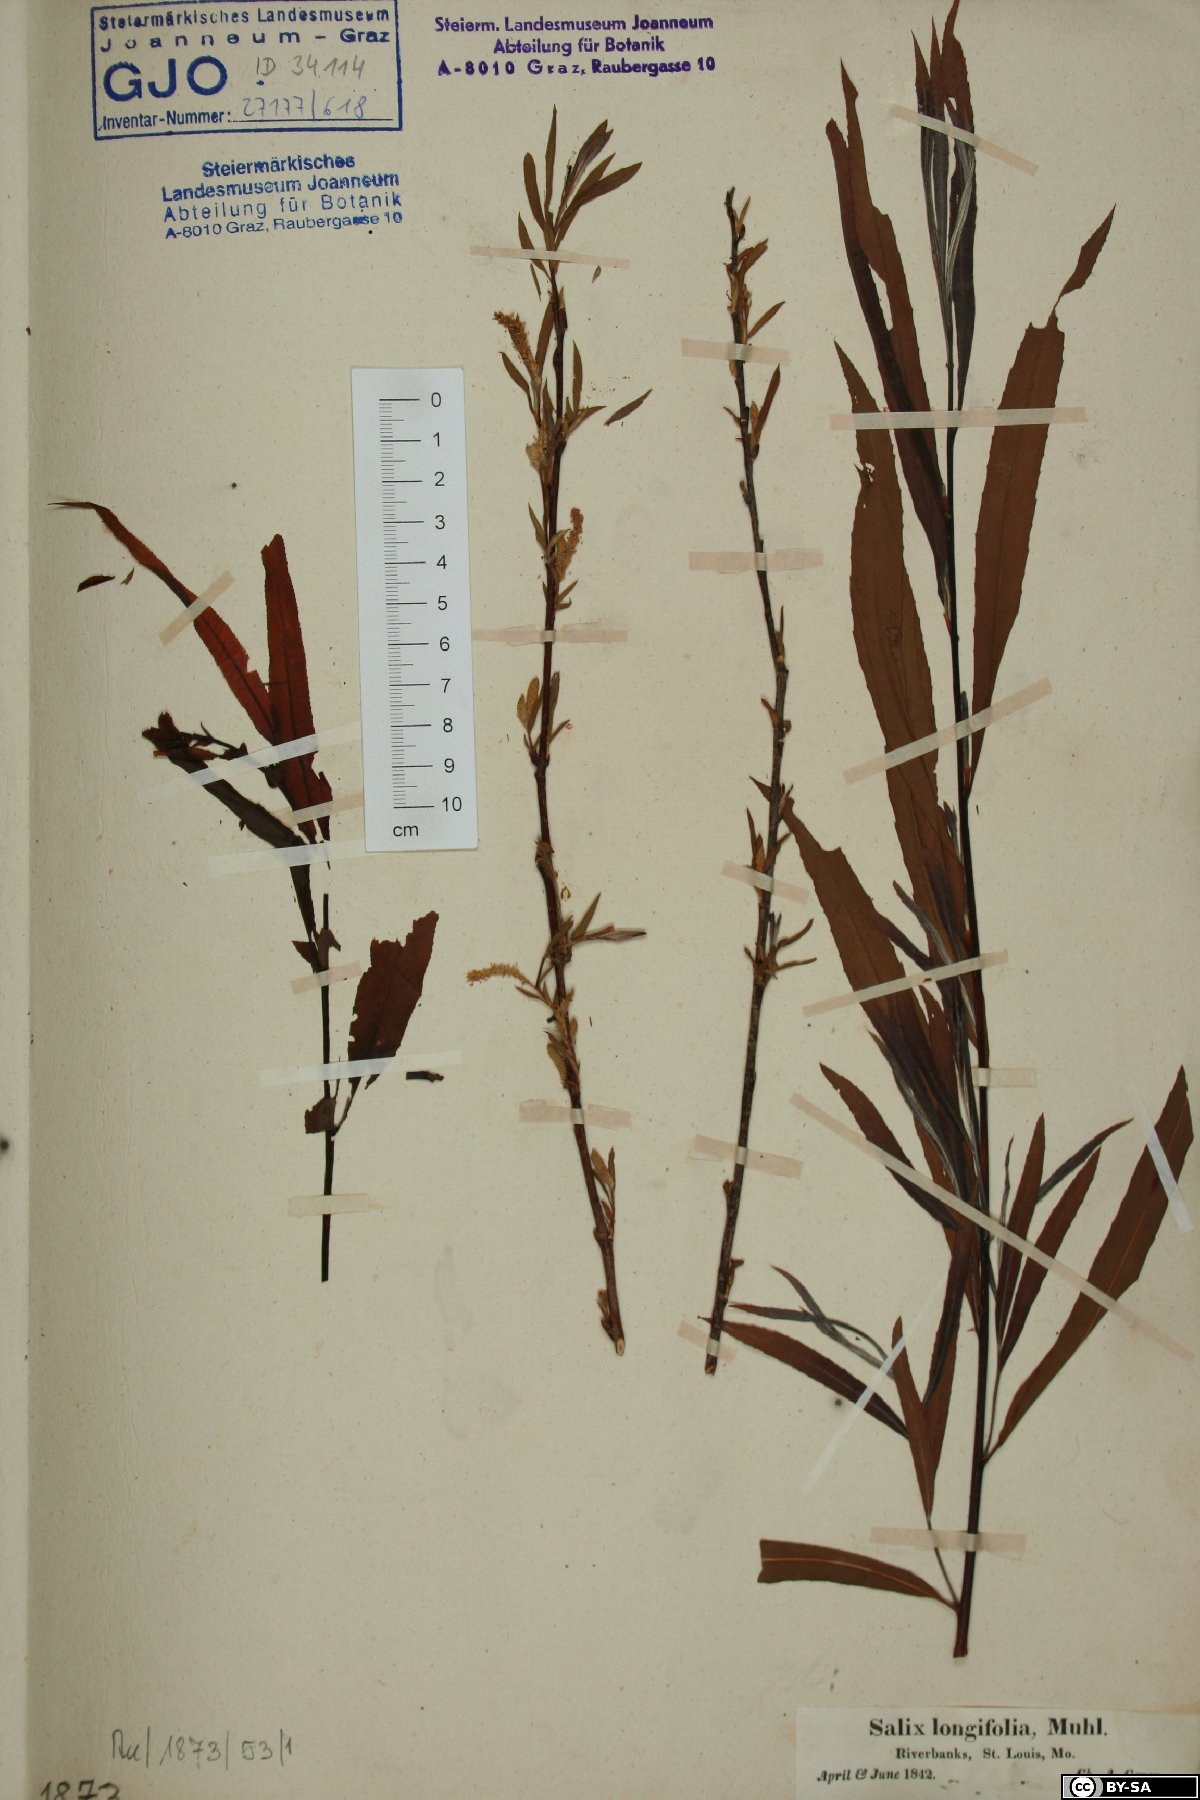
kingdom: Plantae
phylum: Tracheophyta
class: Magnoliopsida
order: Malpighiales
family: Salicaceae
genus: Salix
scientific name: Salix interior
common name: Sandbar willow
